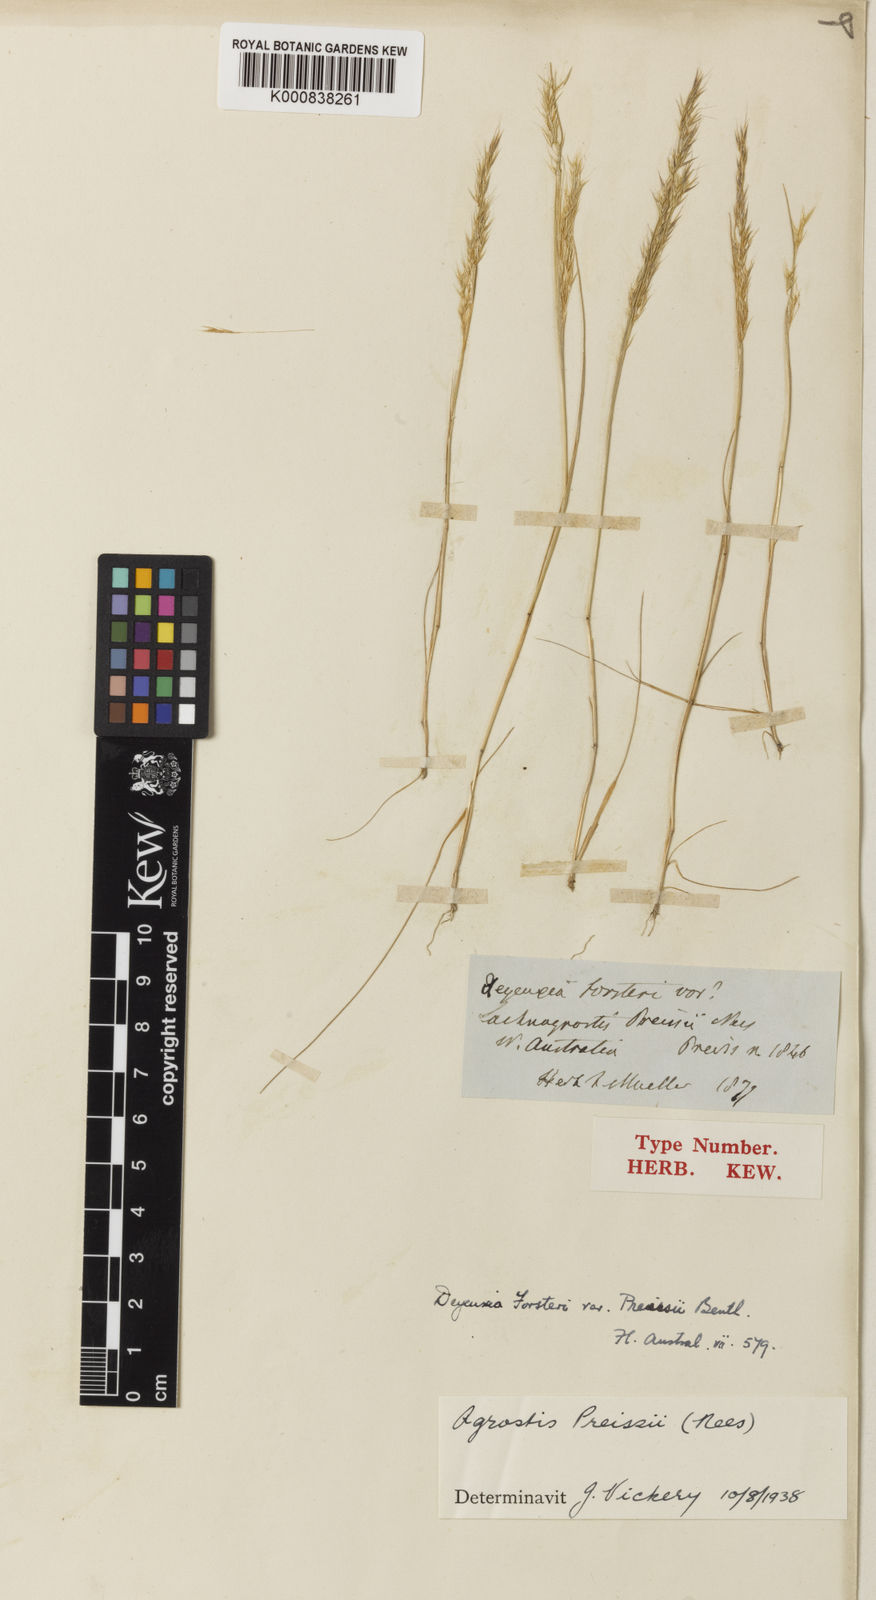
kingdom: Plantae
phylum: Tracheophyta
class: Liliopsida
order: Poales
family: Poaceae
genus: Lachnagrostis
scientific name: Lachnagrostis preissii
